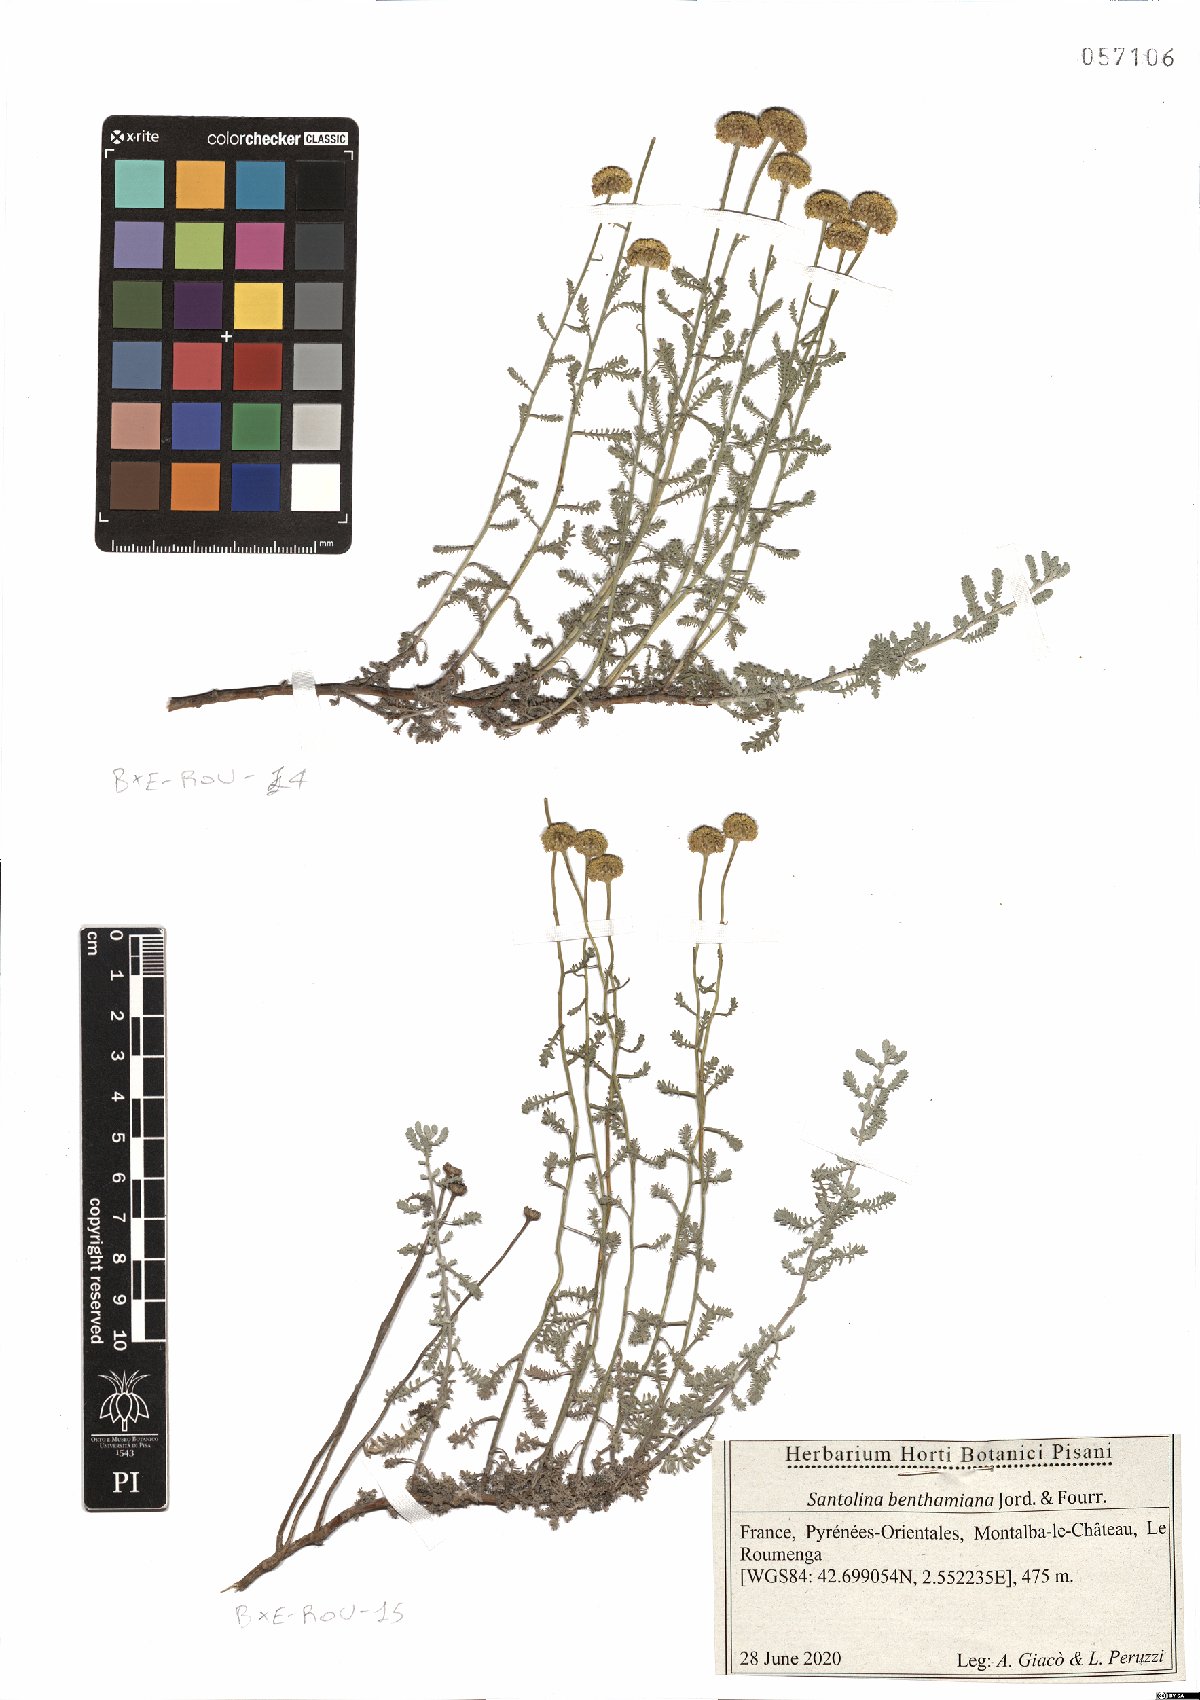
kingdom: Plantae
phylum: Tracheophyta
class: Magnoliopsida
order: Asterales
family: Asteraceae
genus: Santolina
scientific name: Santolina benthamiana
